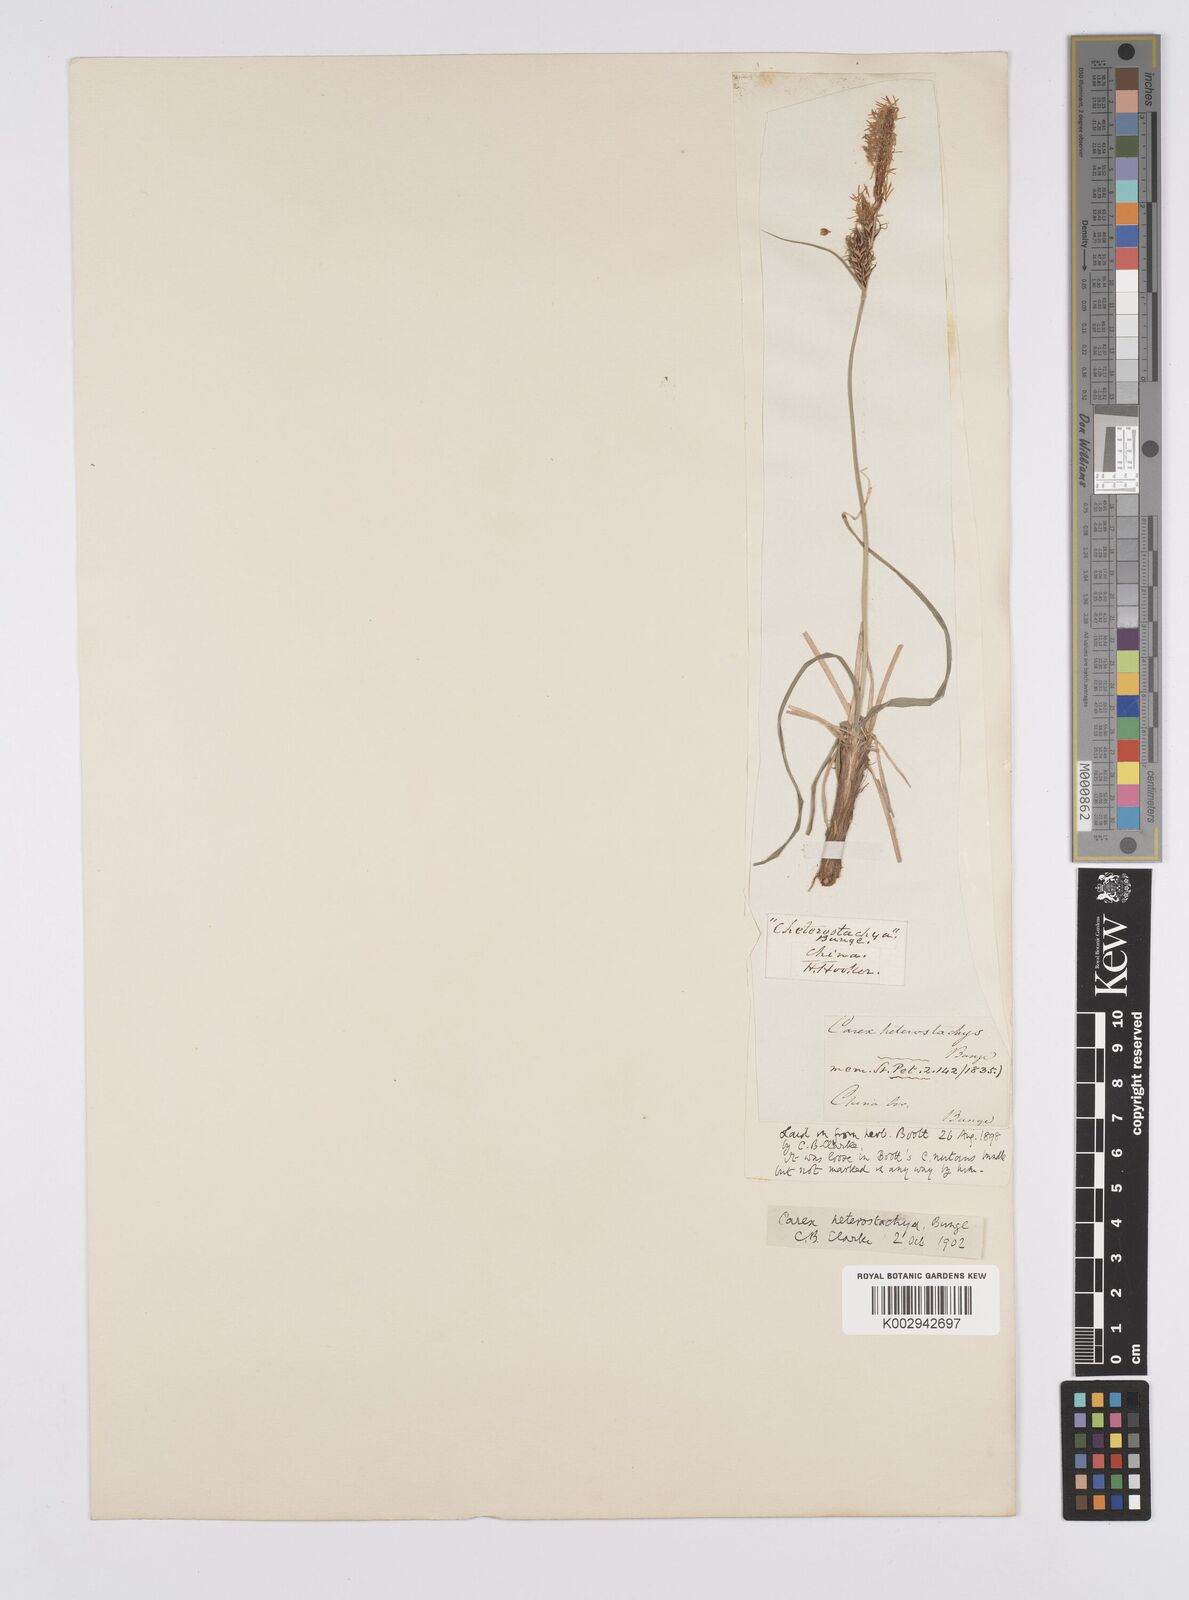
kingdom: Plantae
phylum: Tracheophyta
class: Liliopsida
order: Poales
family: Cyperaceae
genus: Carex
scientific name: Carex heterostachya
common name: Different-spike sedge
